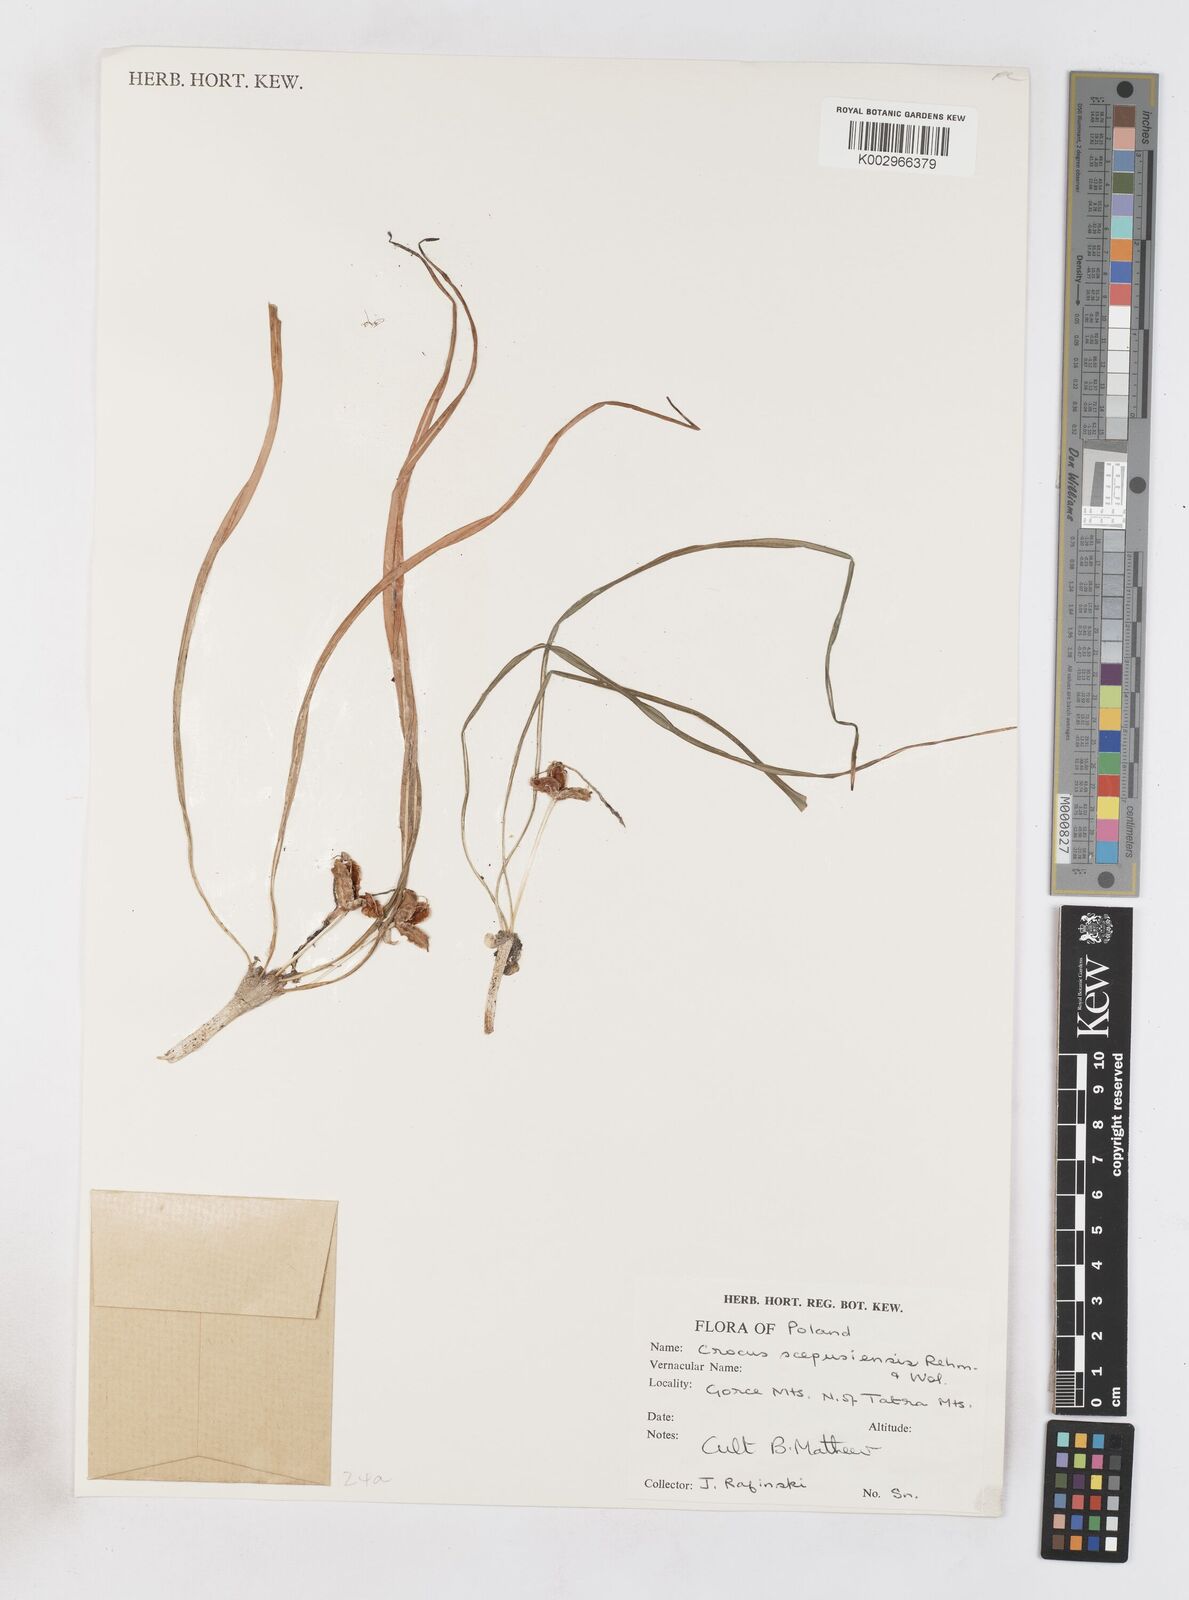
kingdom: Plantae
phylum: Tracheophyta
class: Liliopsida
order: Asparagales
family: Iridaceae
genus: Crocus
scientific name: Crocus vernus
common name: Spring crocus
